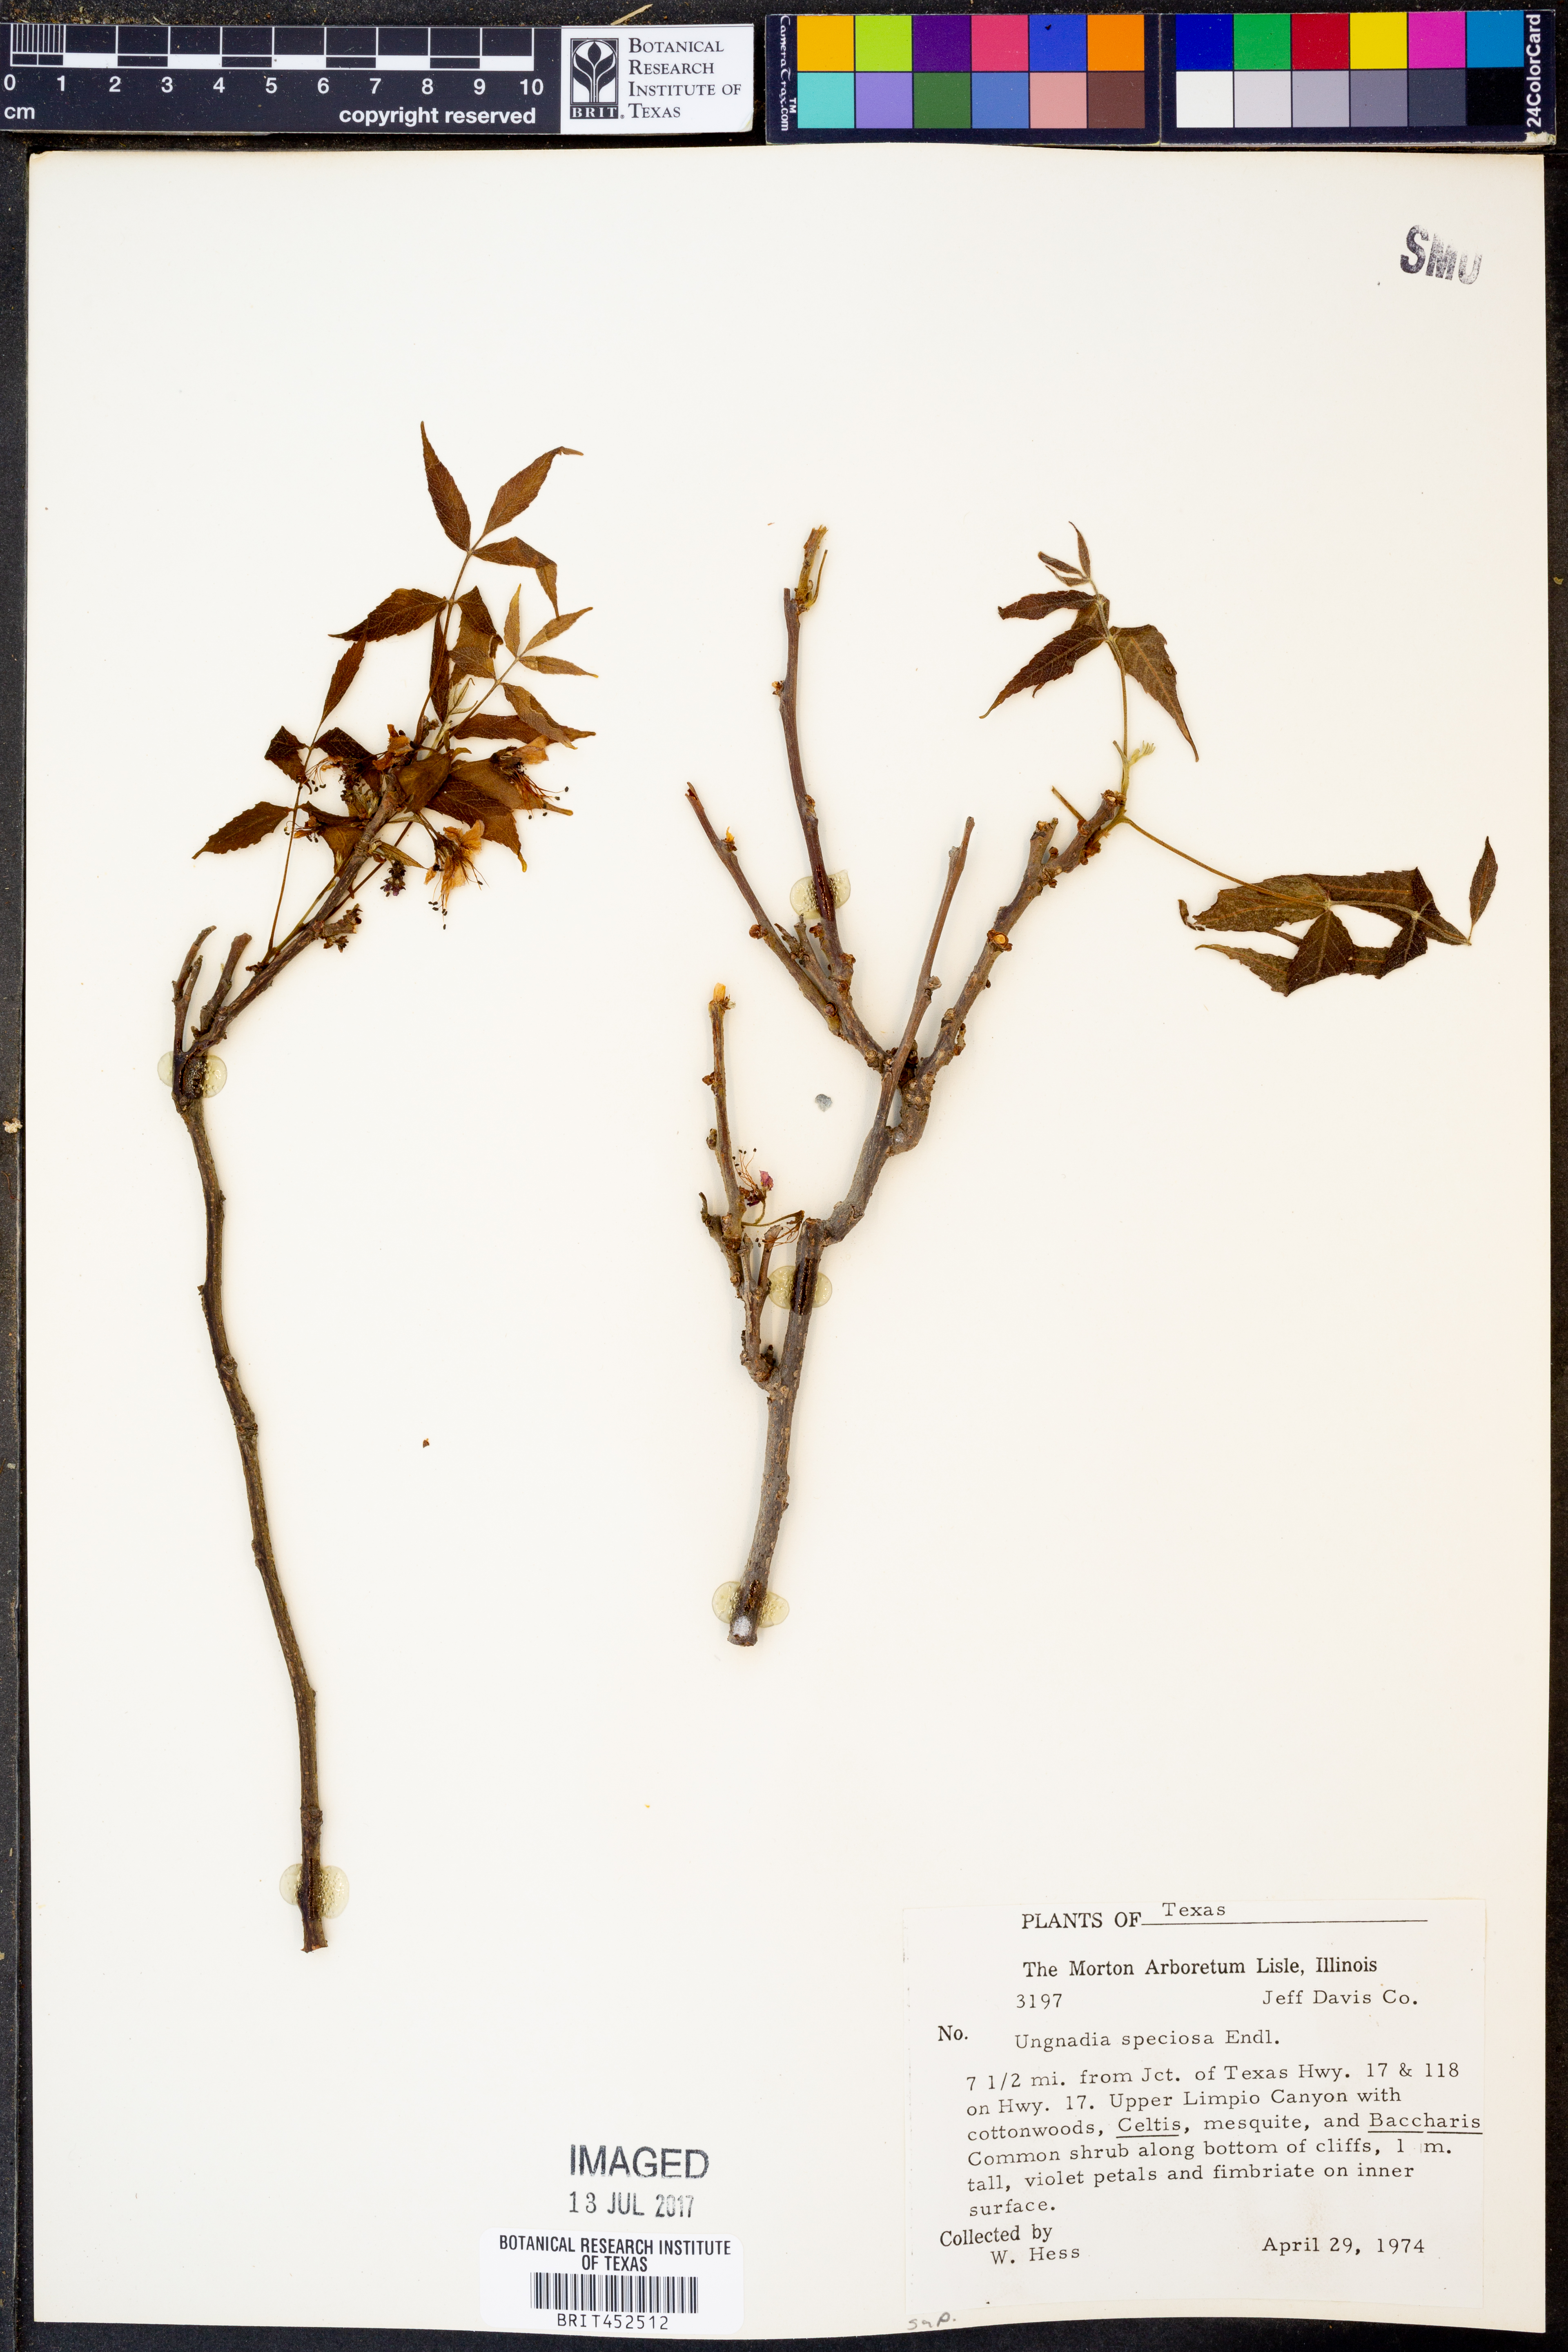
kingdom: Plantae
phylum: Tracheophyta
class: Magnoliopsida
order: Sapindales
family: Sapindaceae
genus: Ungnadia
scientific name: Ungnadia speciosa
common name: Texas-buckeye
